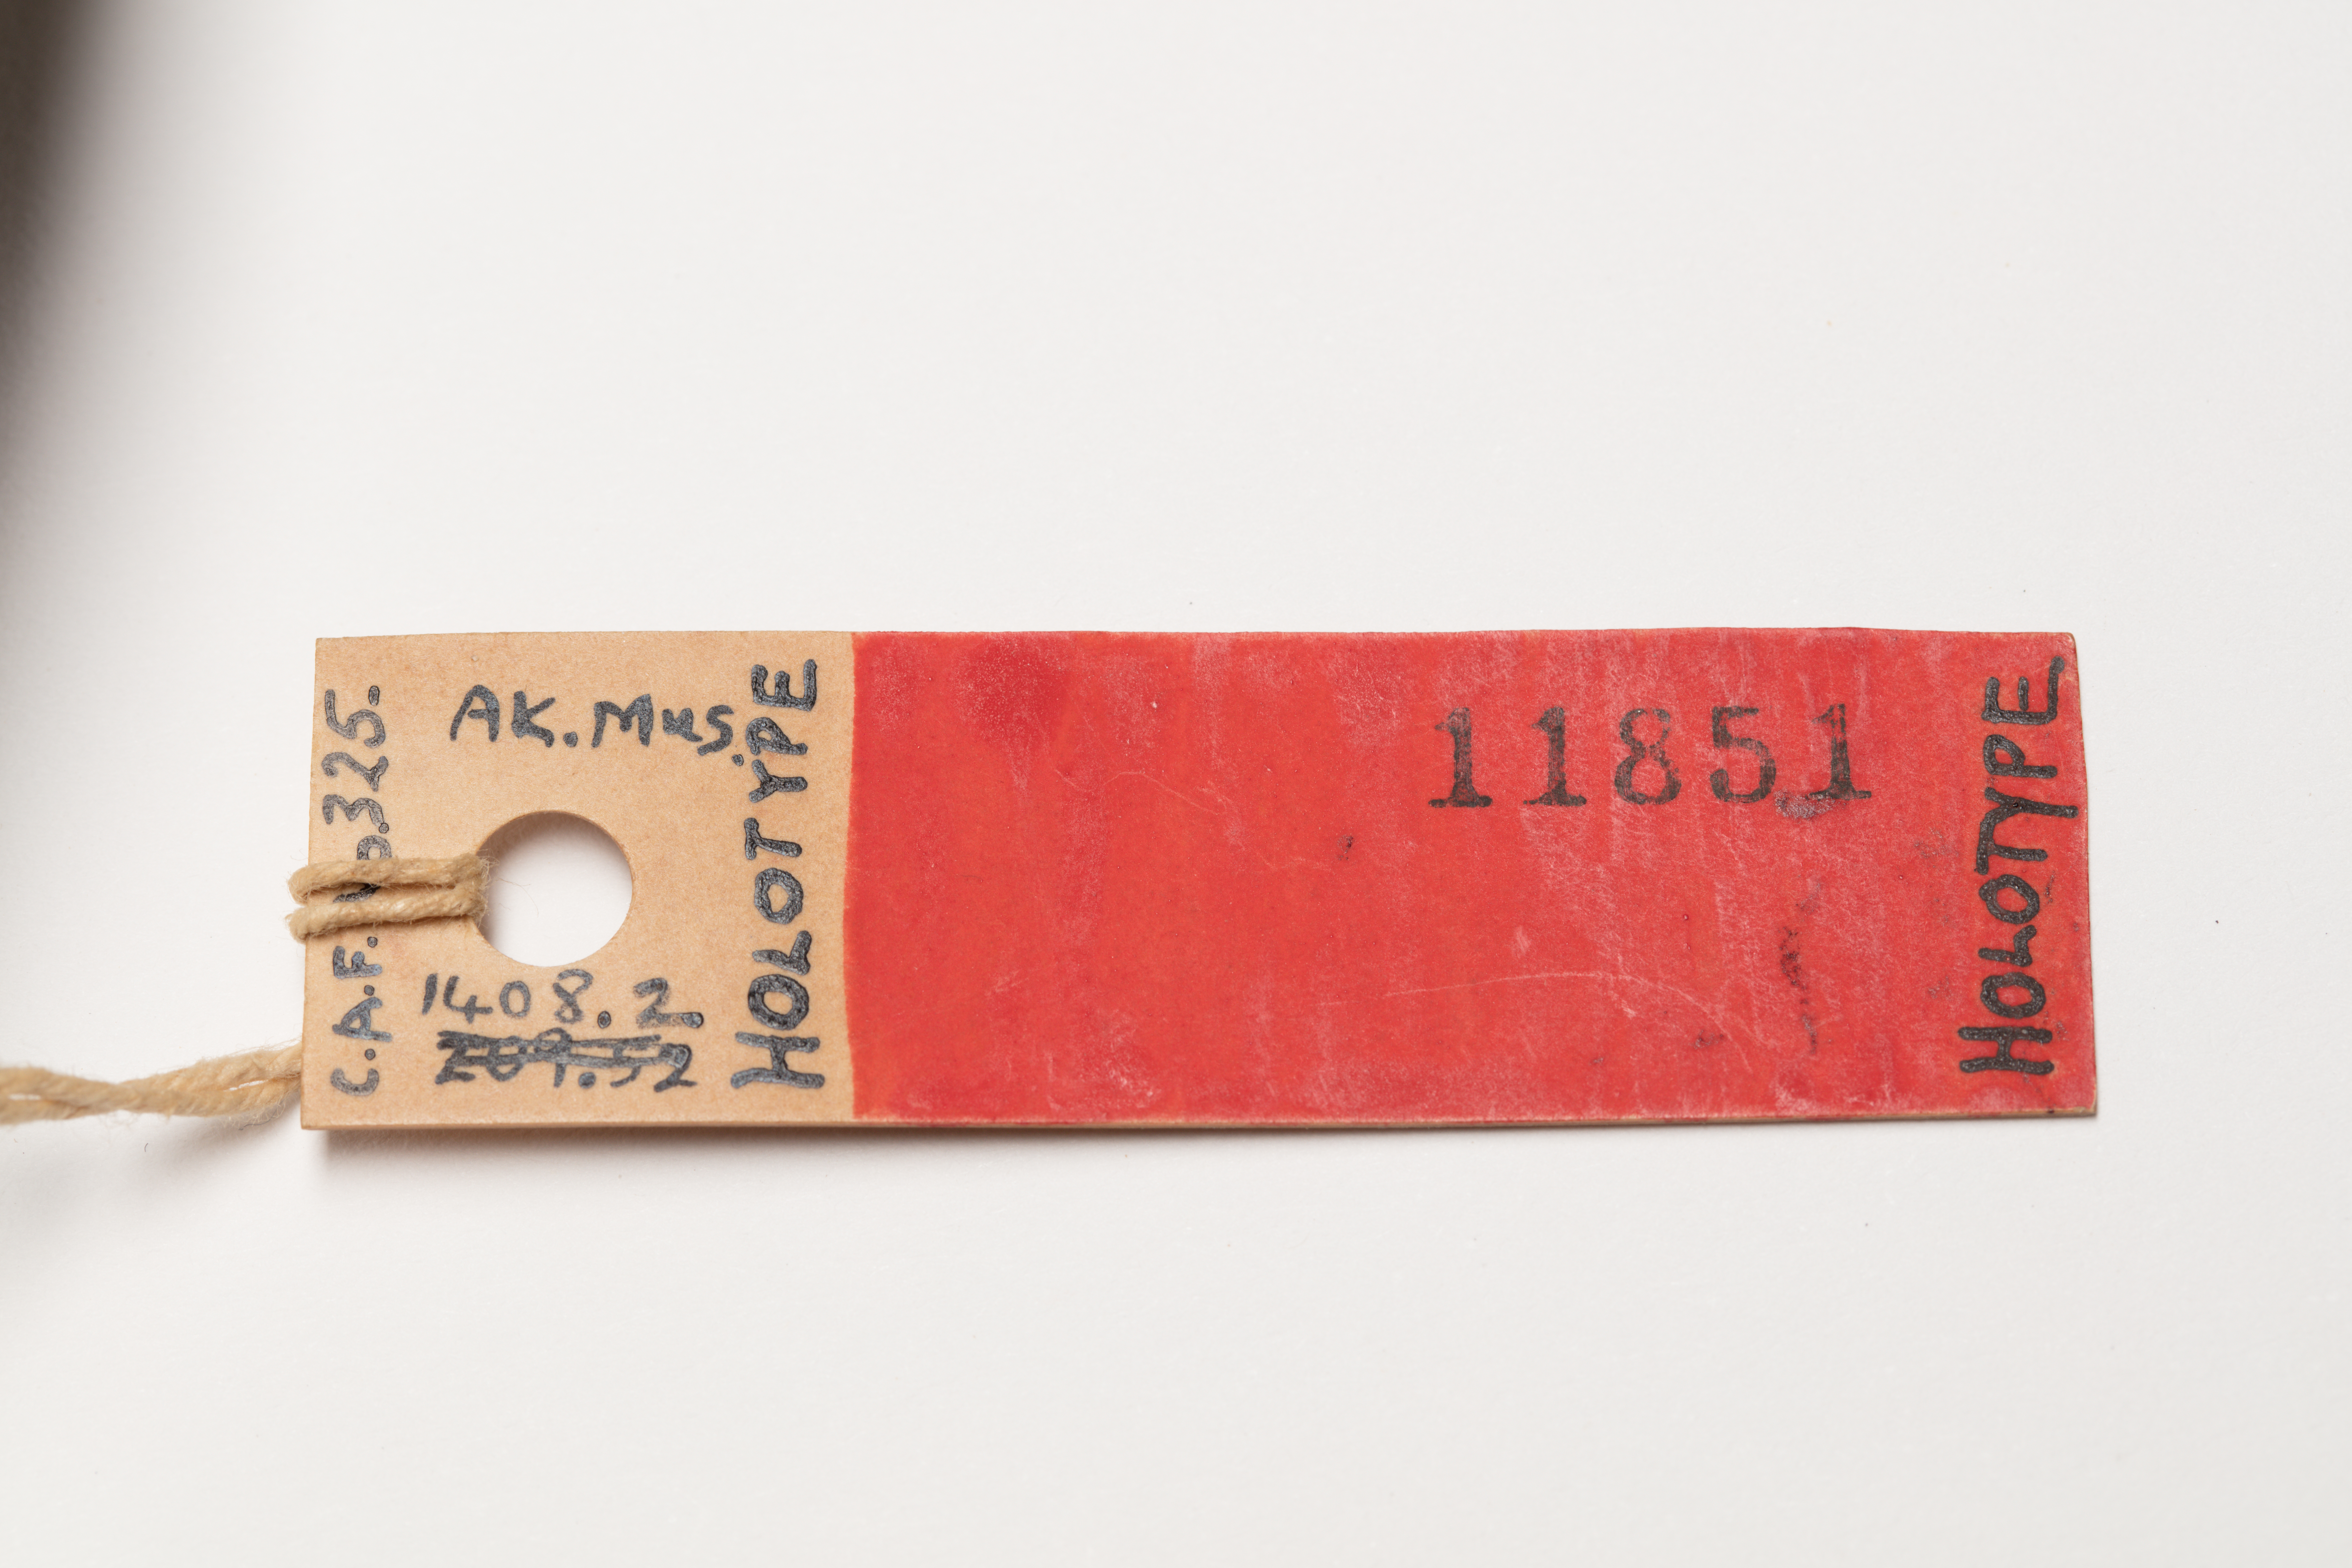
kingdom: Animalia
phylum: Chordata
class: Aves
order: Procellariiformes
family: Procellariidae
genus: Pachyptila
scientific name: Pachyptila
